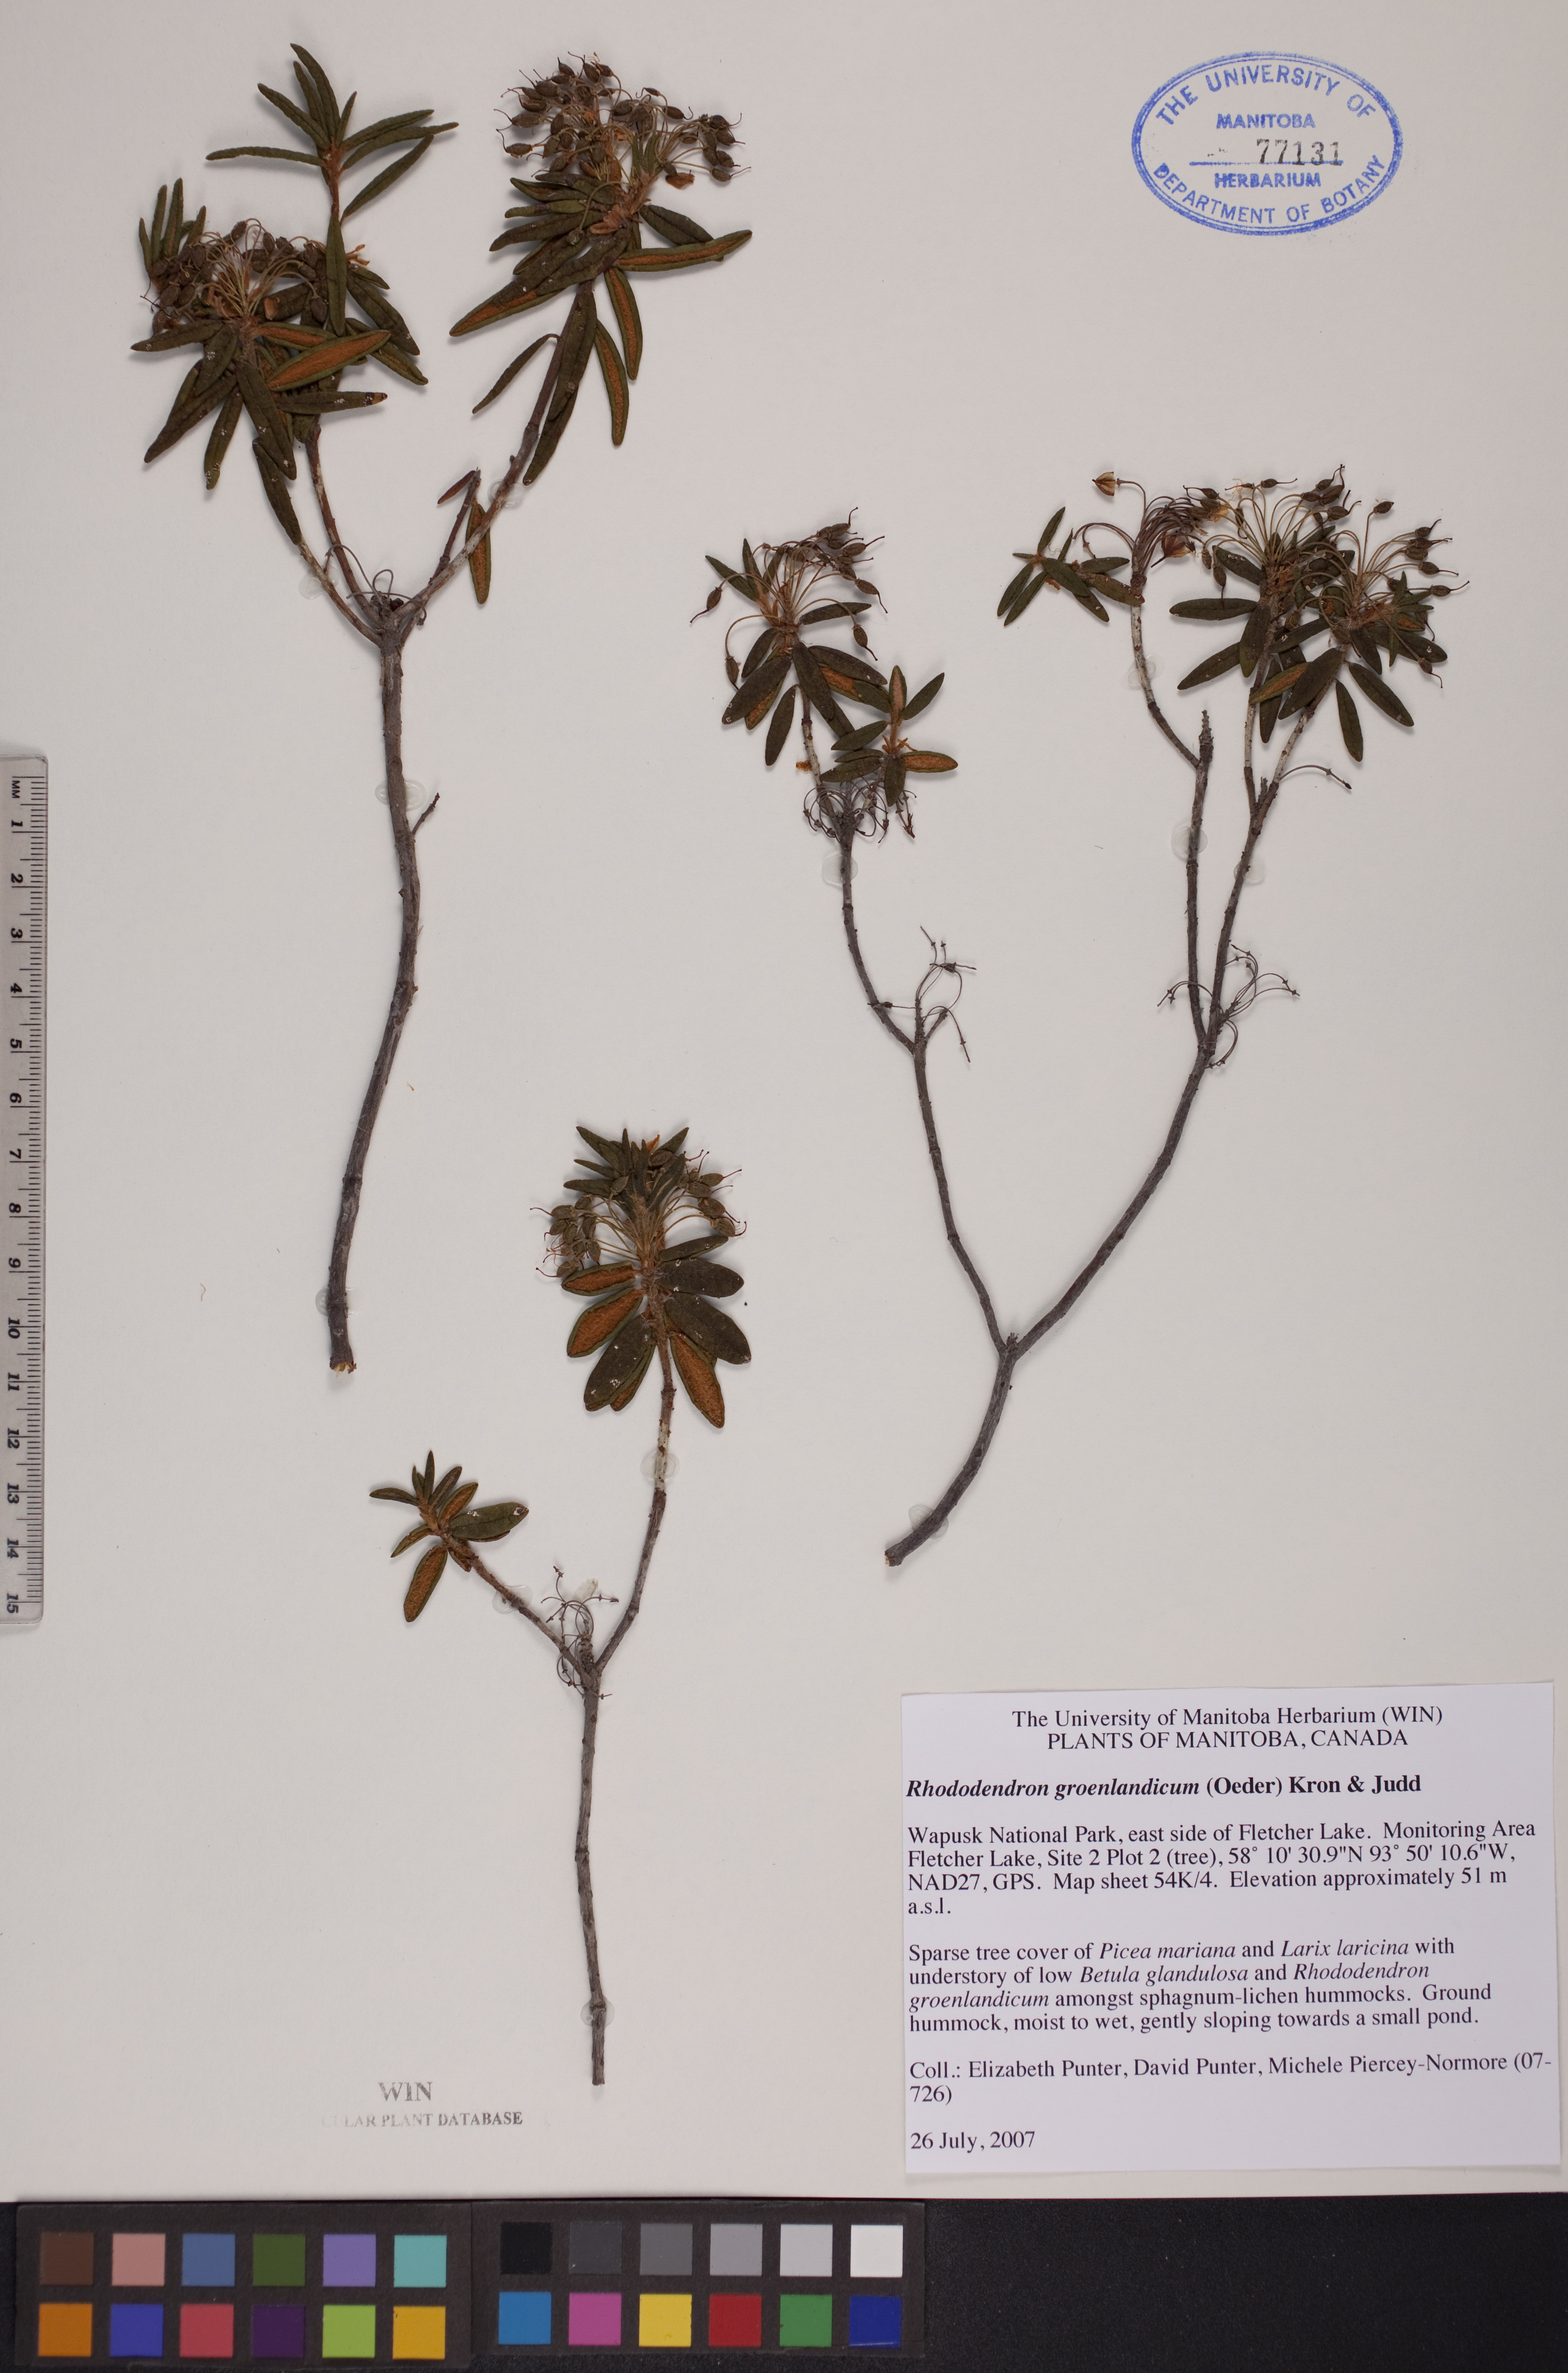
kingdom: Plantae
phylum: Tracheophyta
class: Magnoliopsida
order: Ericales
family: Ericaceae
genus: Rhododendron
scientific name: Rhododendron groenlandicum
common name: Bog labrador tea
